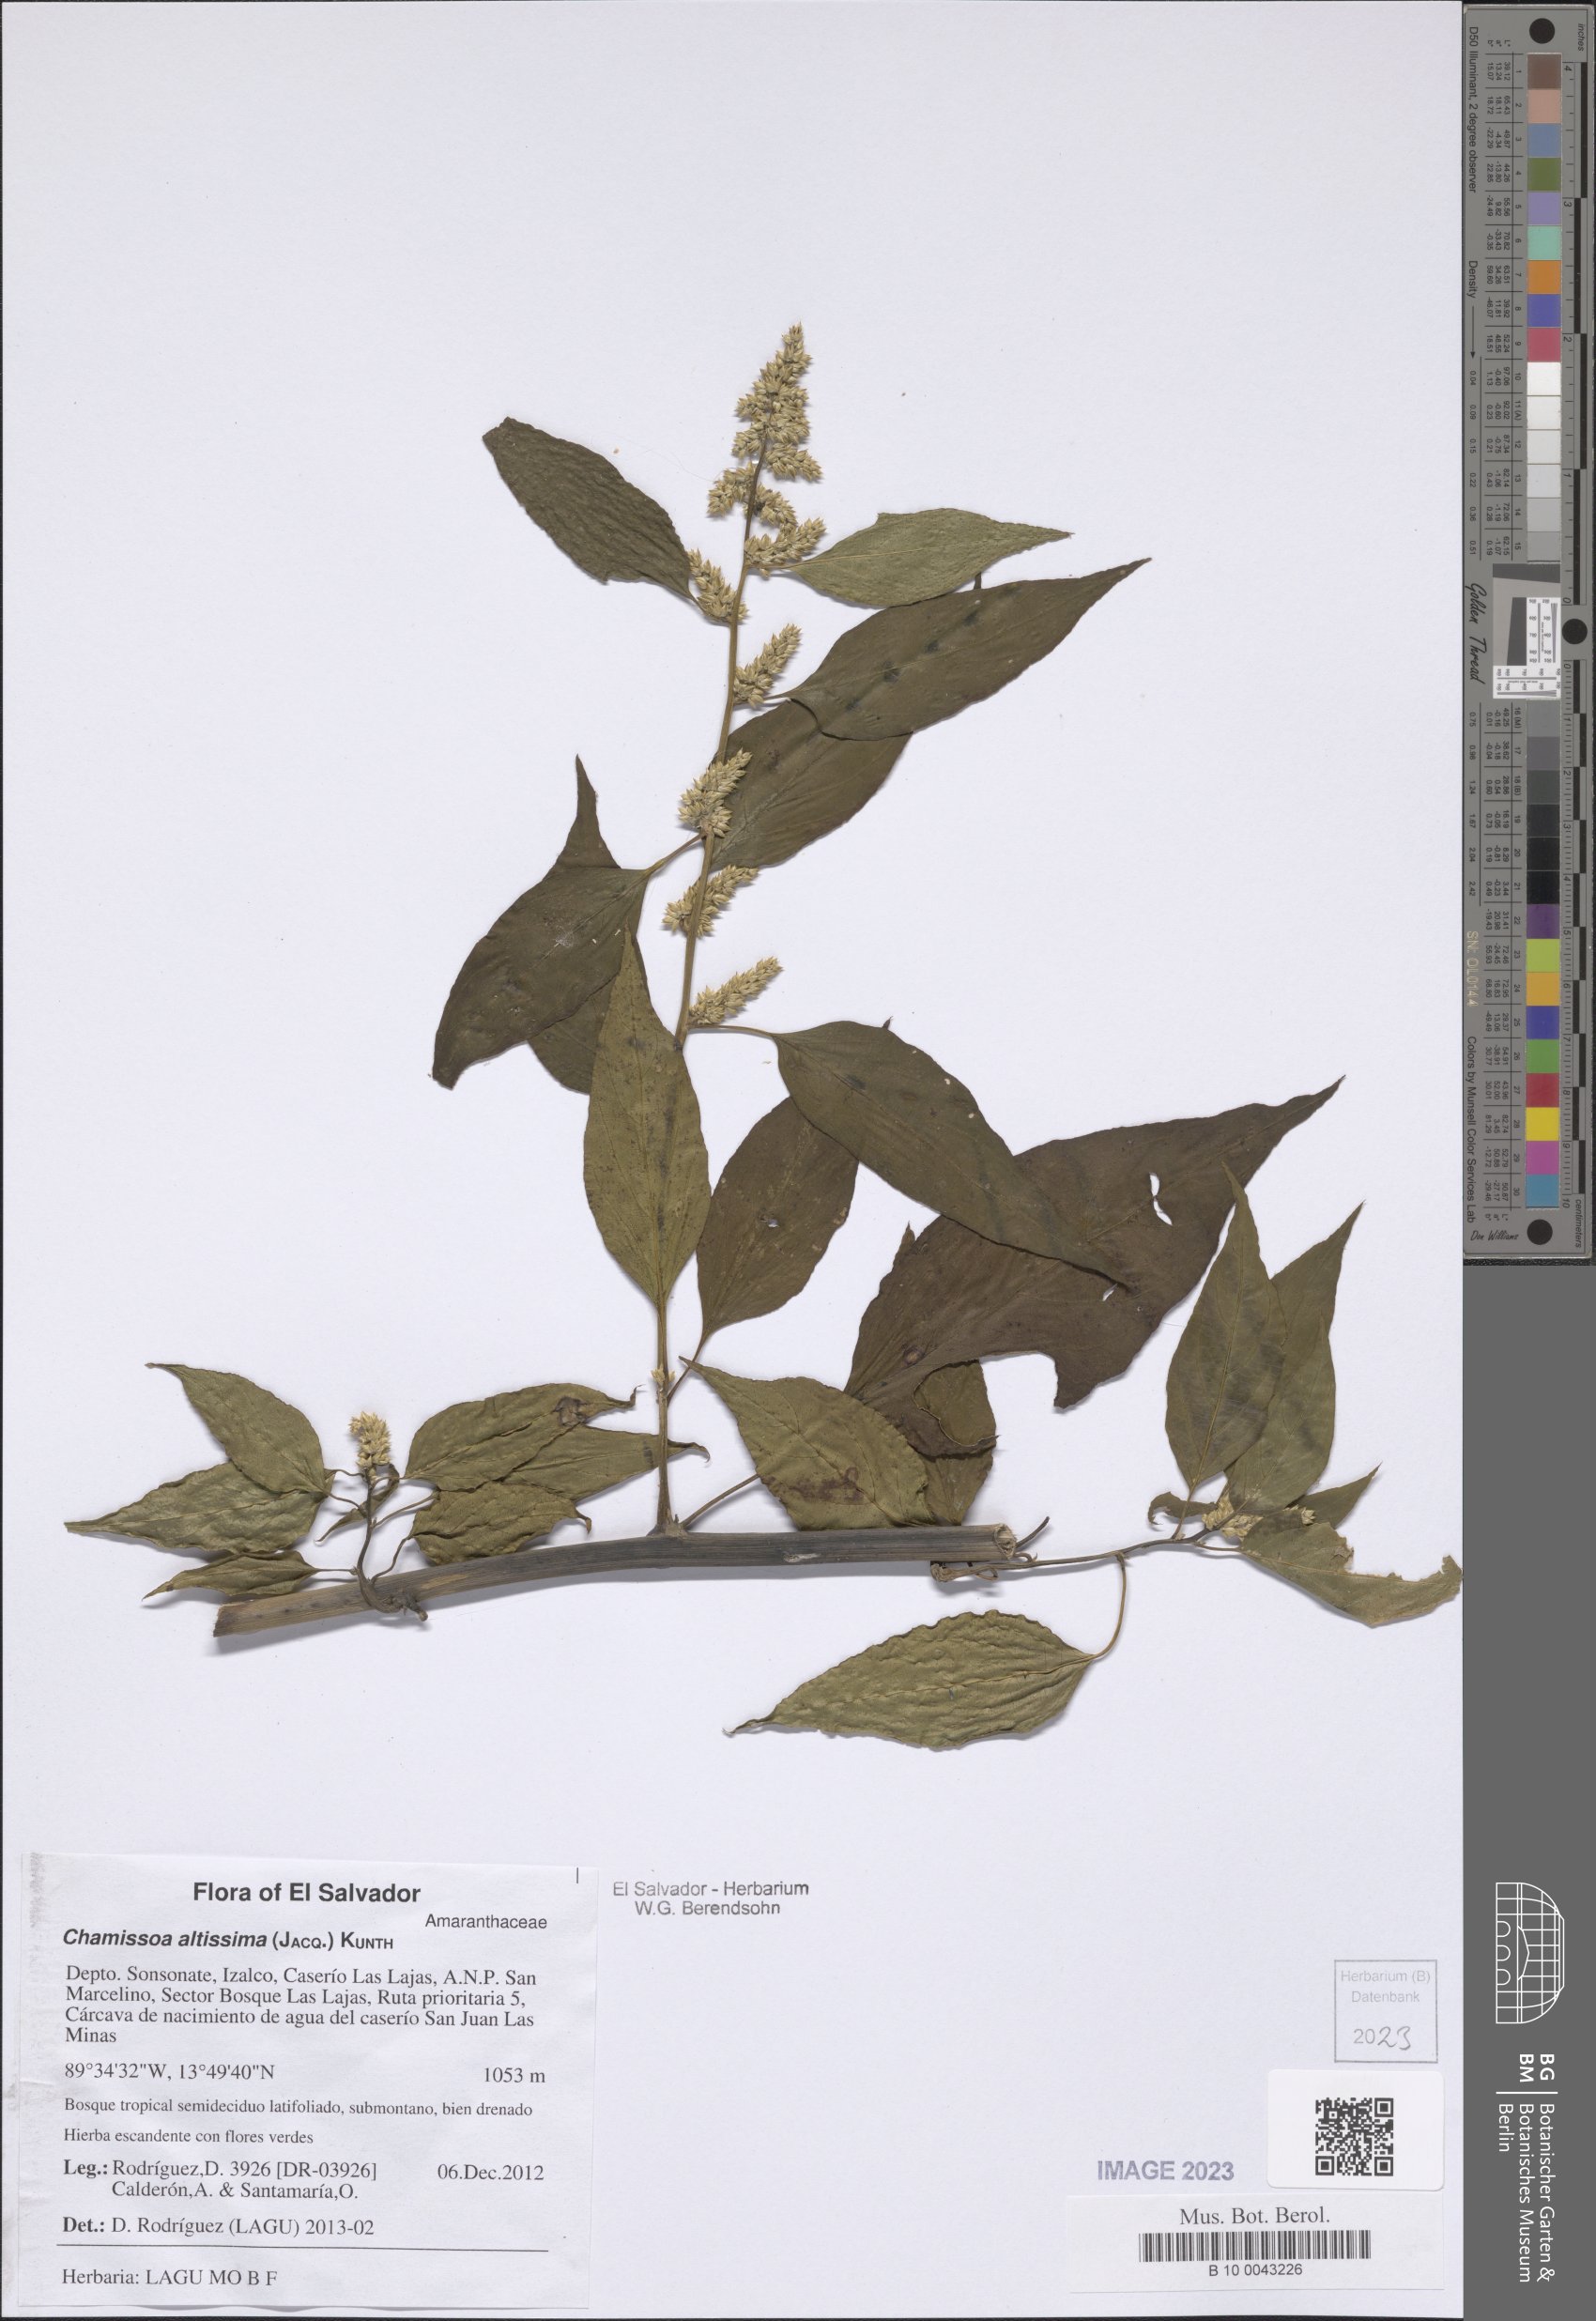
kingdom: Plantae
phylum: Tracheophyta
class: Magnoliopsida
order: Caryophyllales
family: Amaranthaceae
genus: Chamissoa
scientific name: Chamissoa altissima
